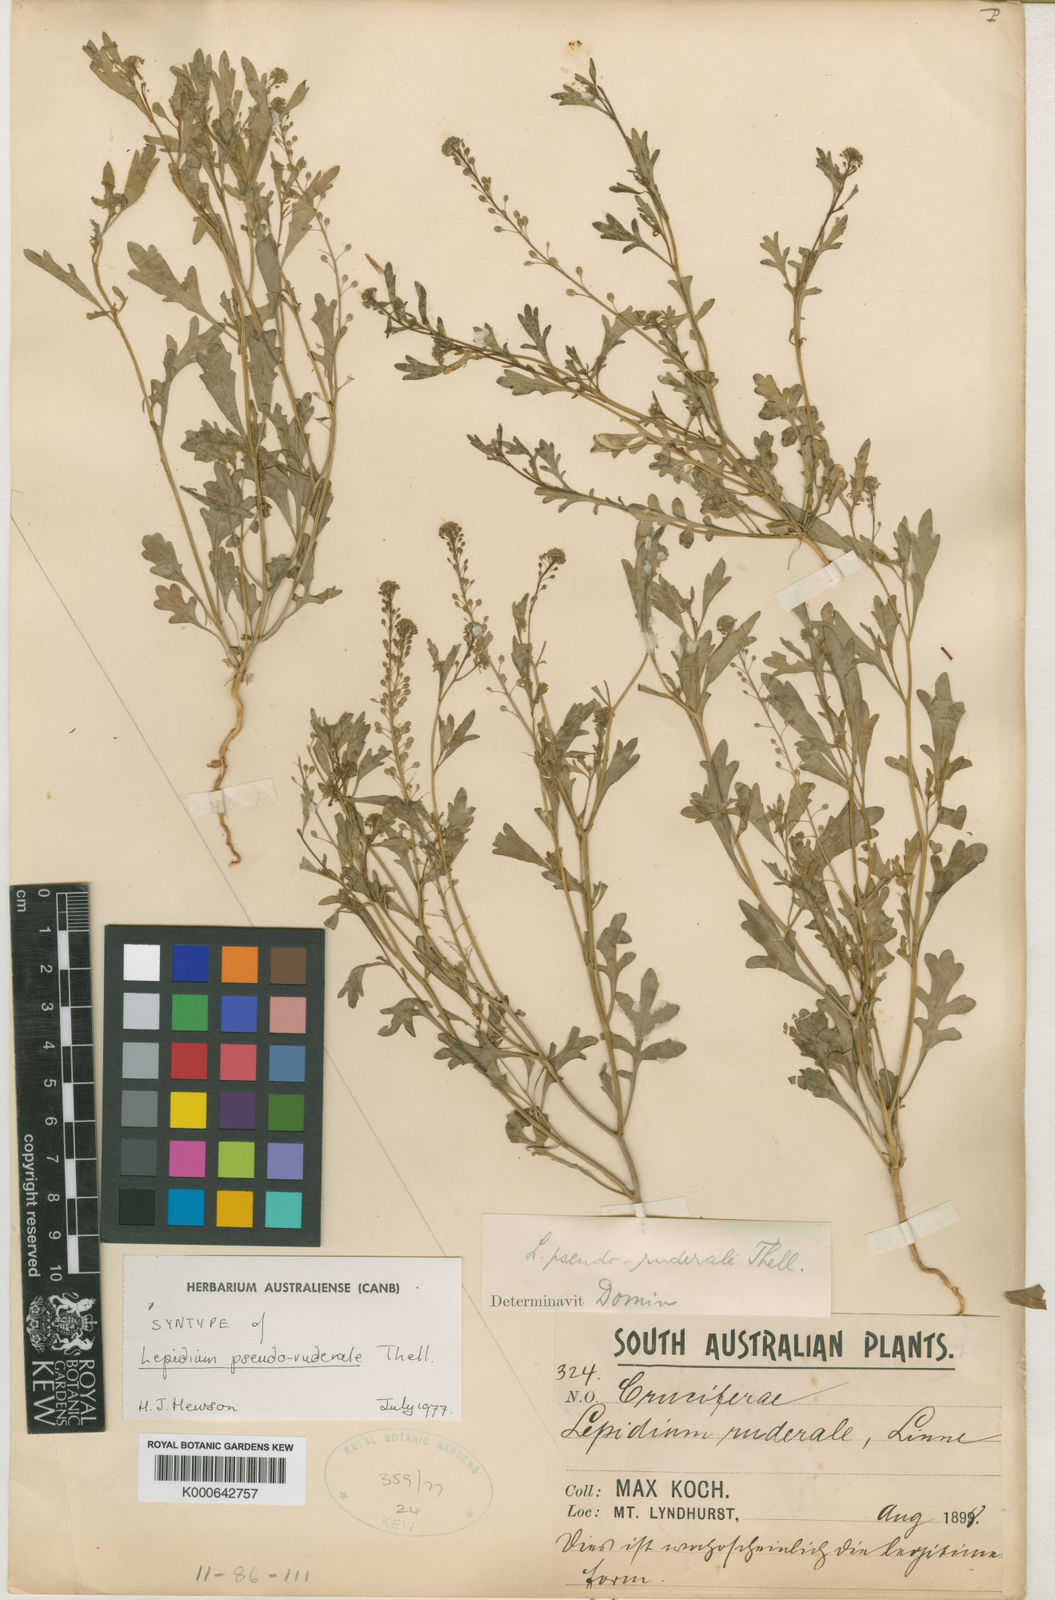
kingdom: Plantae
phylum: Tracheophyta
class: Magnoliopsida
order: Brassicales
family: Brassicaceae
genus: Lepidium
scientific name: Lepidium pseudoruderale
